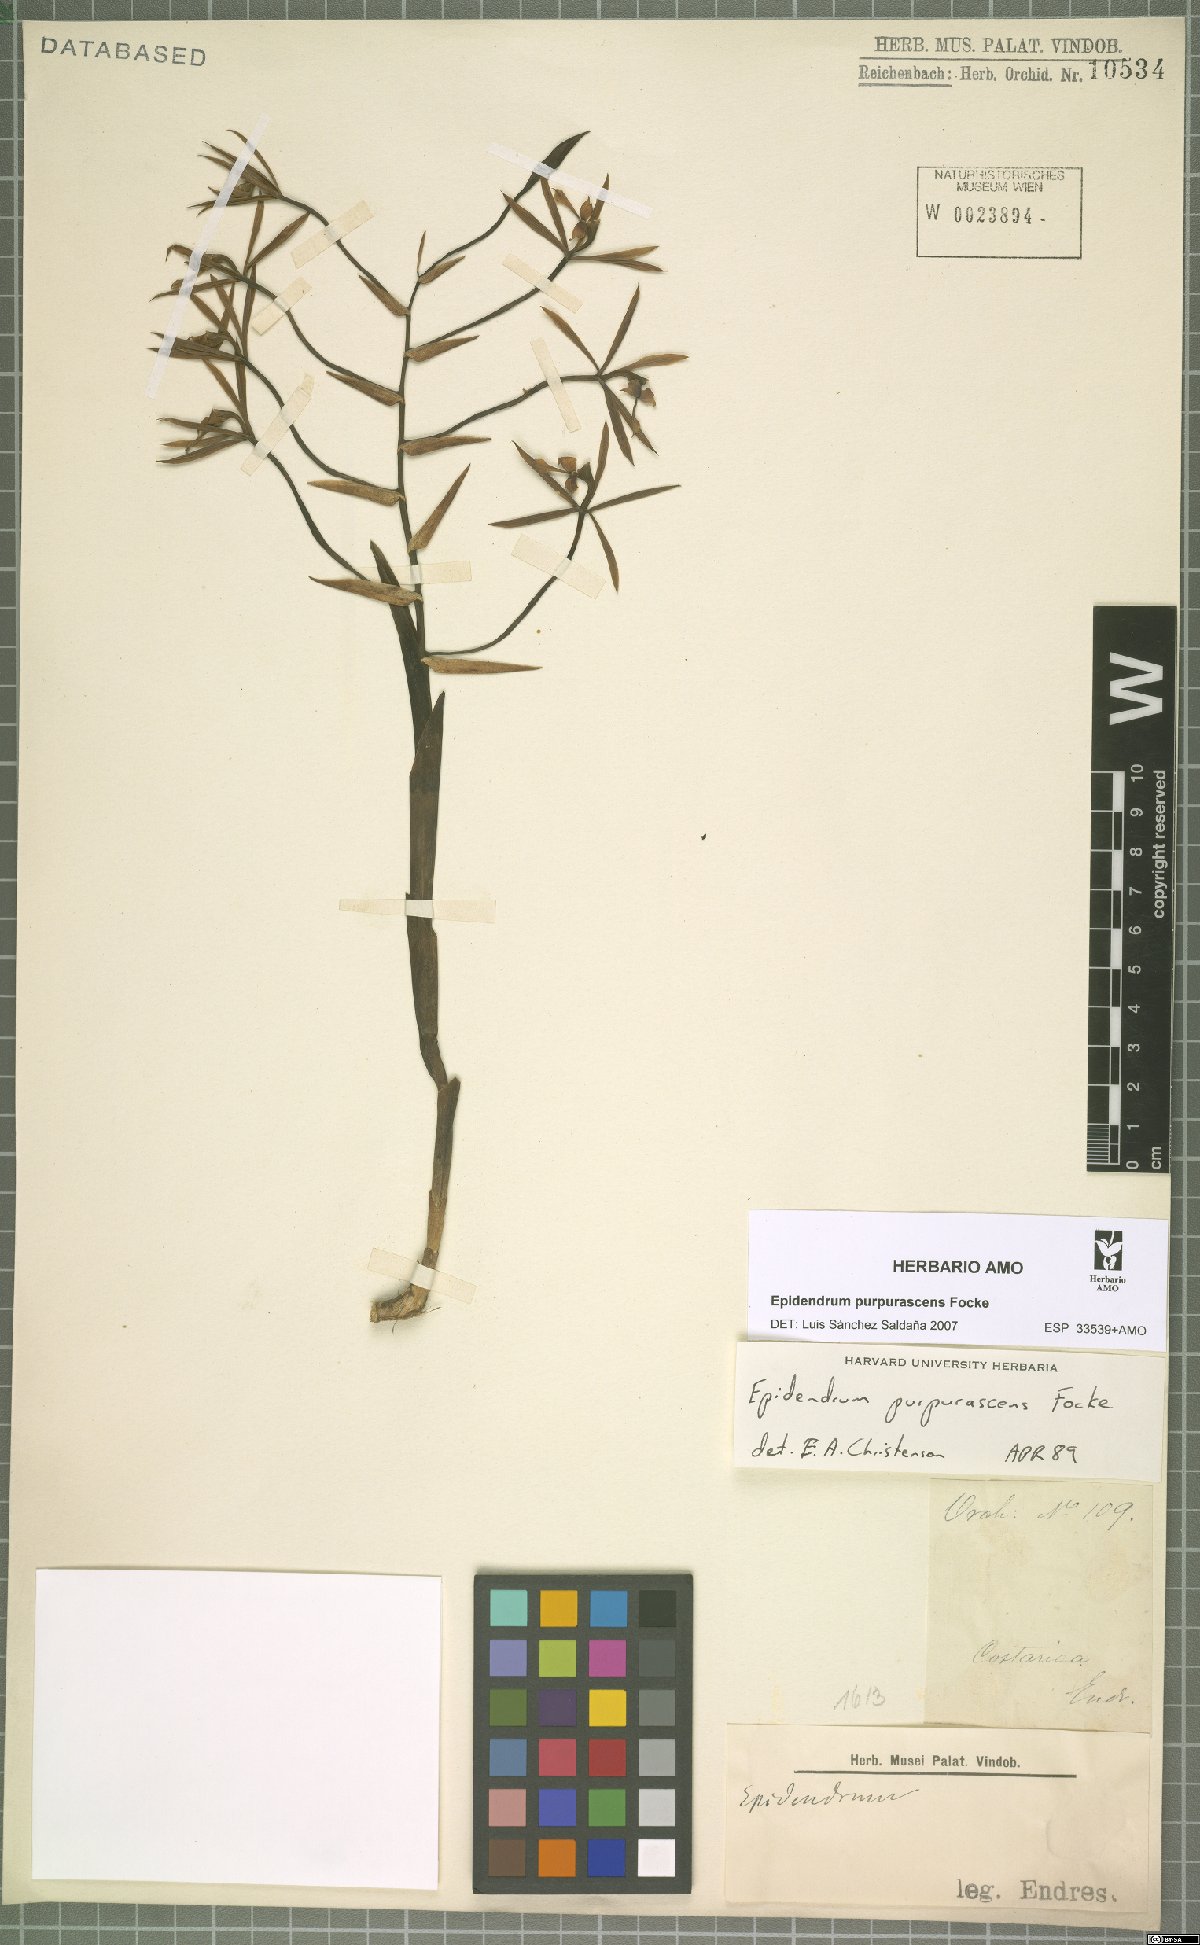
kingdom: Plantae
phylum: Tracheophyta
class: Liliopsida
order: Asparagales
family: Orchidaceae
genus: Epidendrum
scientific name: Epidendrum purpurascens
